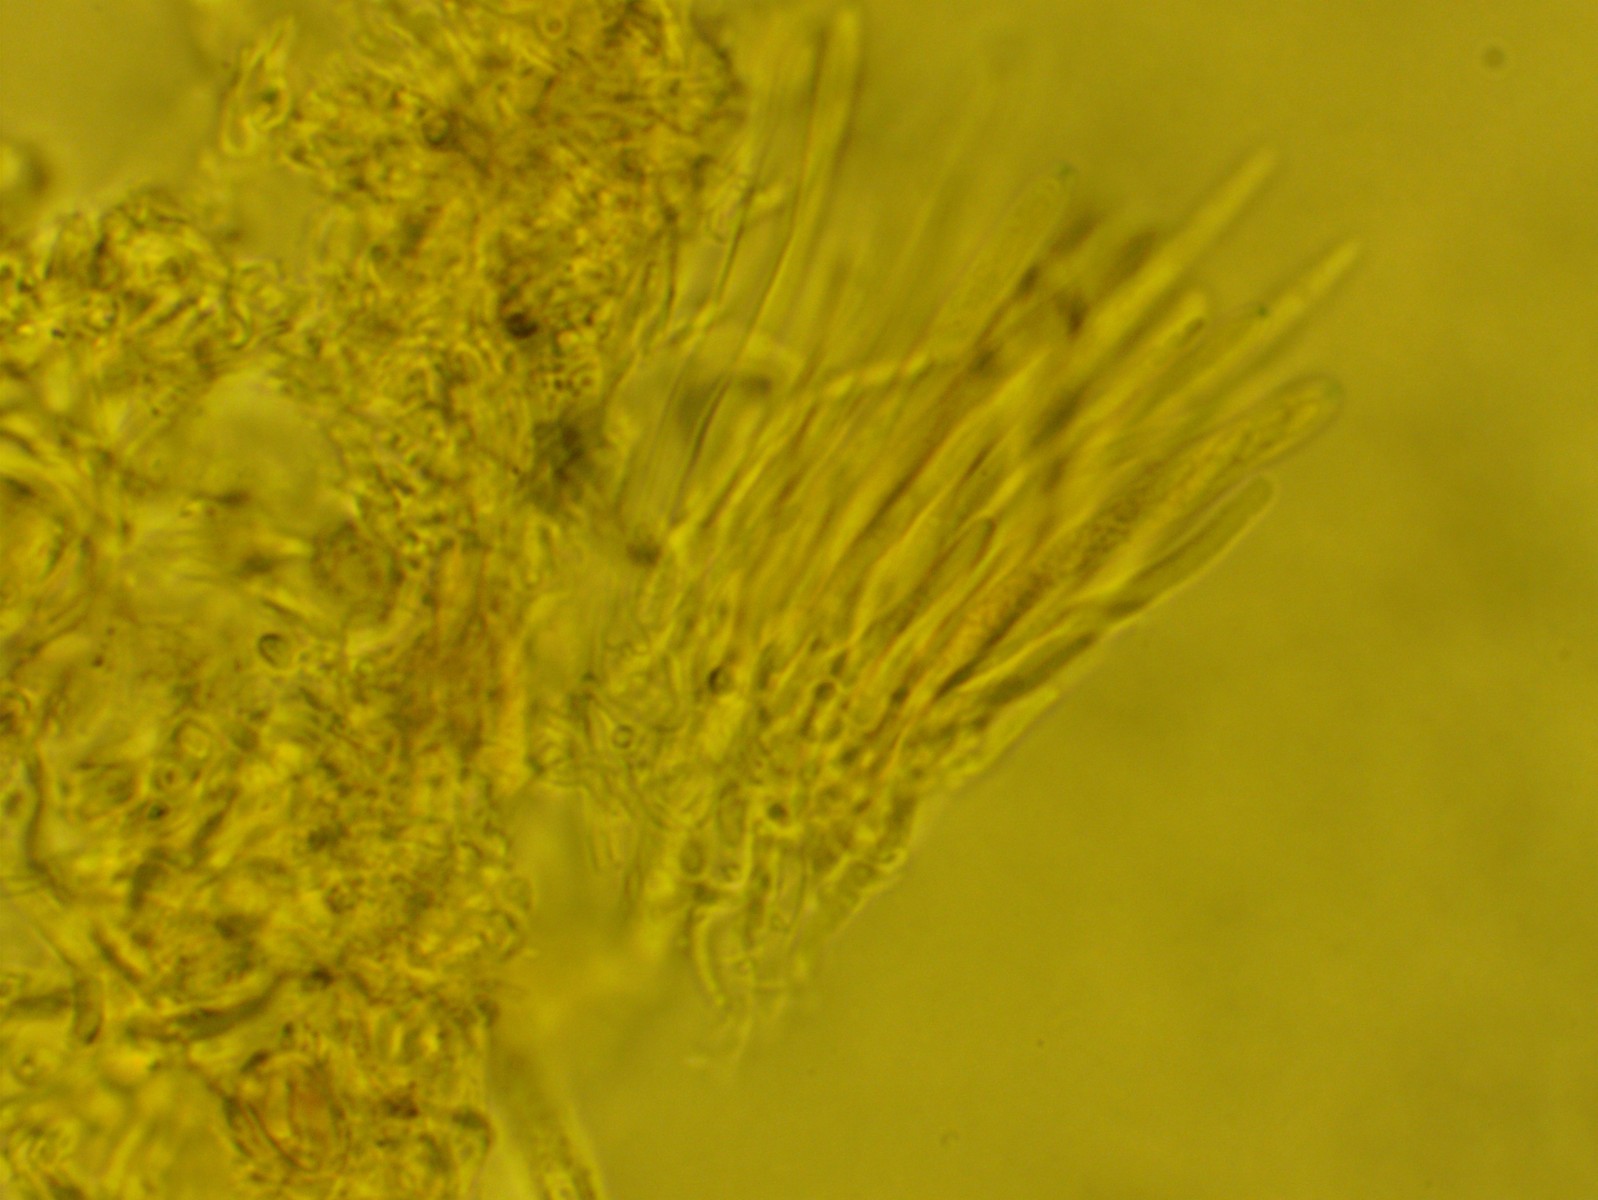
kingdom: Fungi
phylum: Ascomycota
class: Leotiomycetes
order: Helotiales
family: Lachnaceae
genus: Lachnum
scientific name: Lachnum
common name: frynseskive
